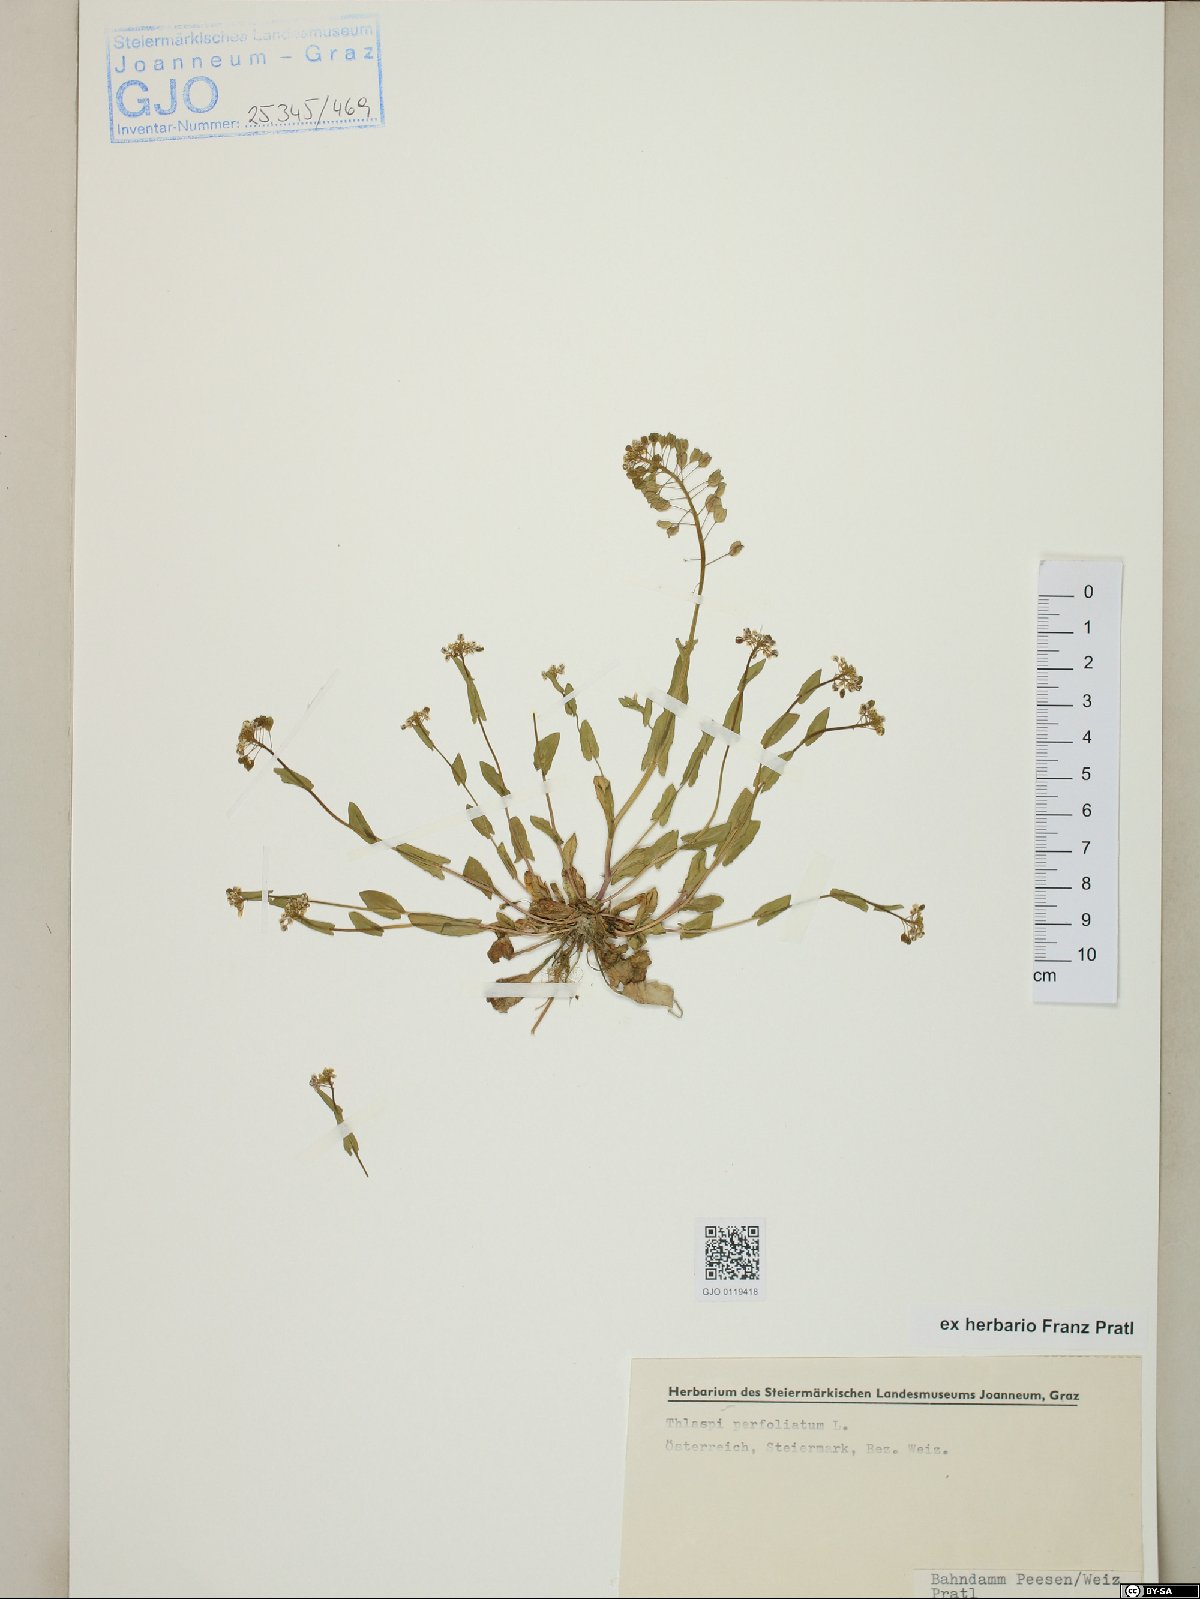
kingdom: Plantae
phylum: Tracheophyta
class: Magnoliopsida
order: Brassicales
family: Brassicaceae
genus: Noccaea
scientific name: Noccaea perfoliata
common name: Perfoliate pennycress
